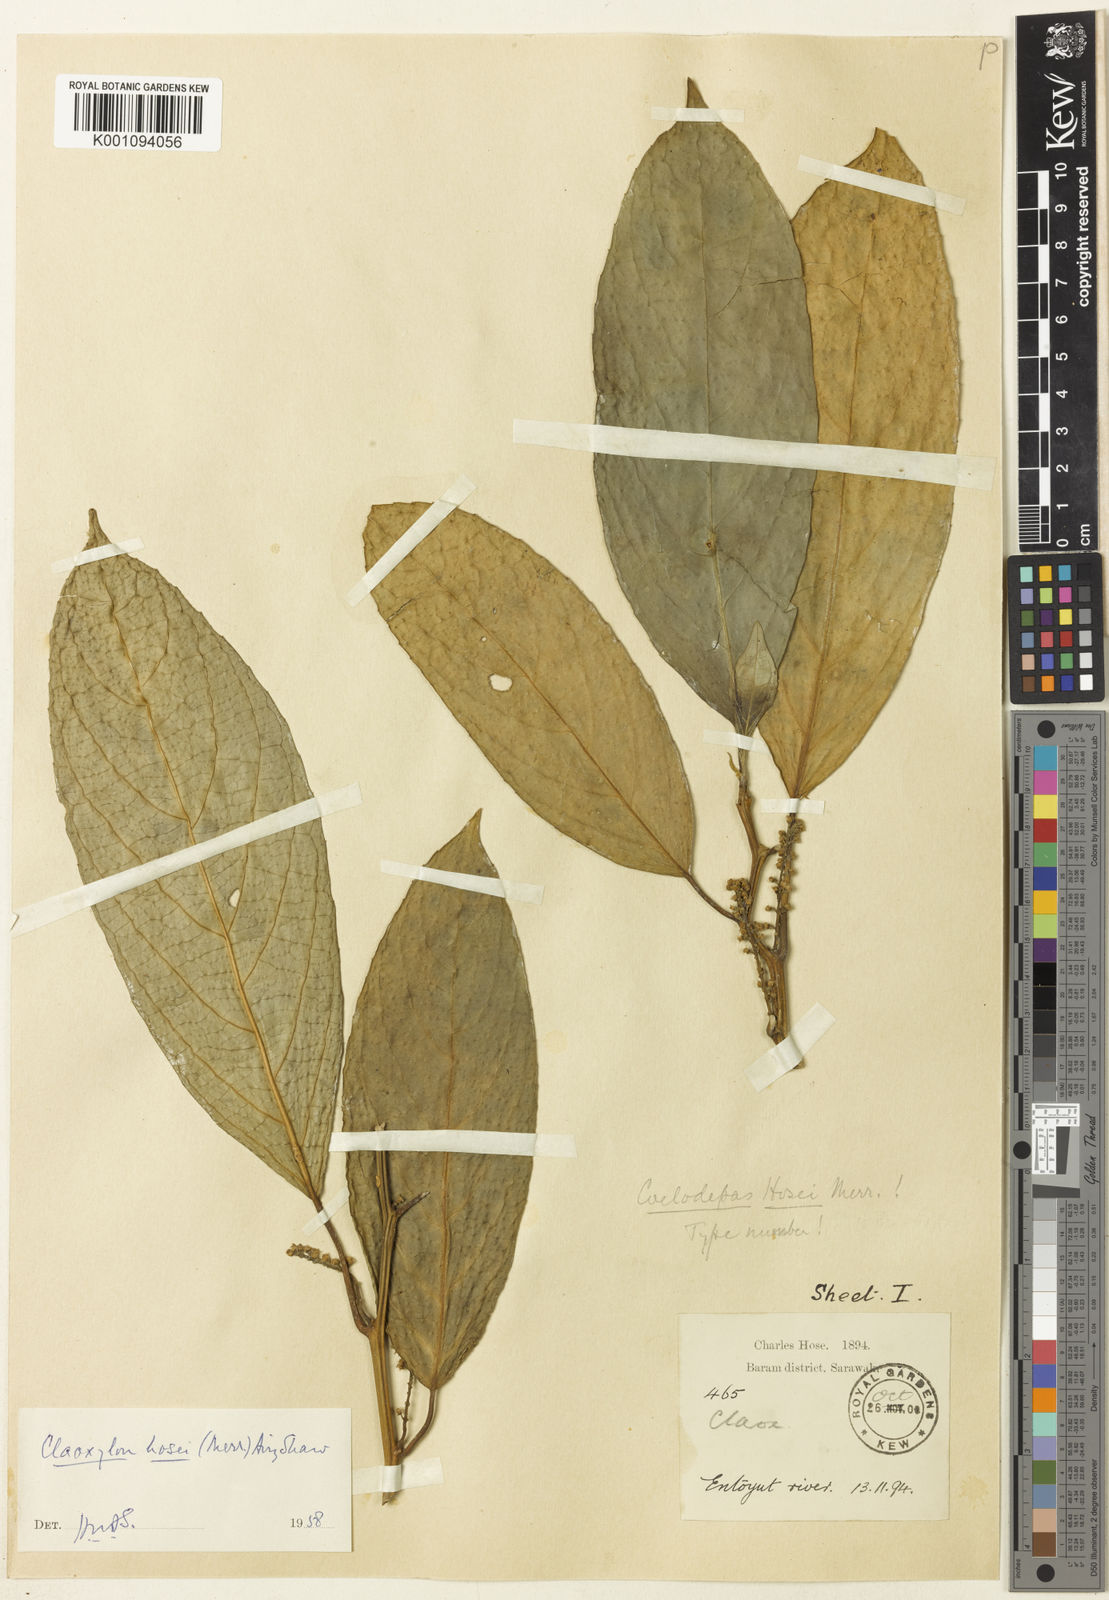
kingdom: Plantae
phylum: Tracheophyta
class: Magnoliopsida
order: Malpighiales
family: Euphorbiaceae
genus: Claoxylon
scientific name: Claoxylon hosei
